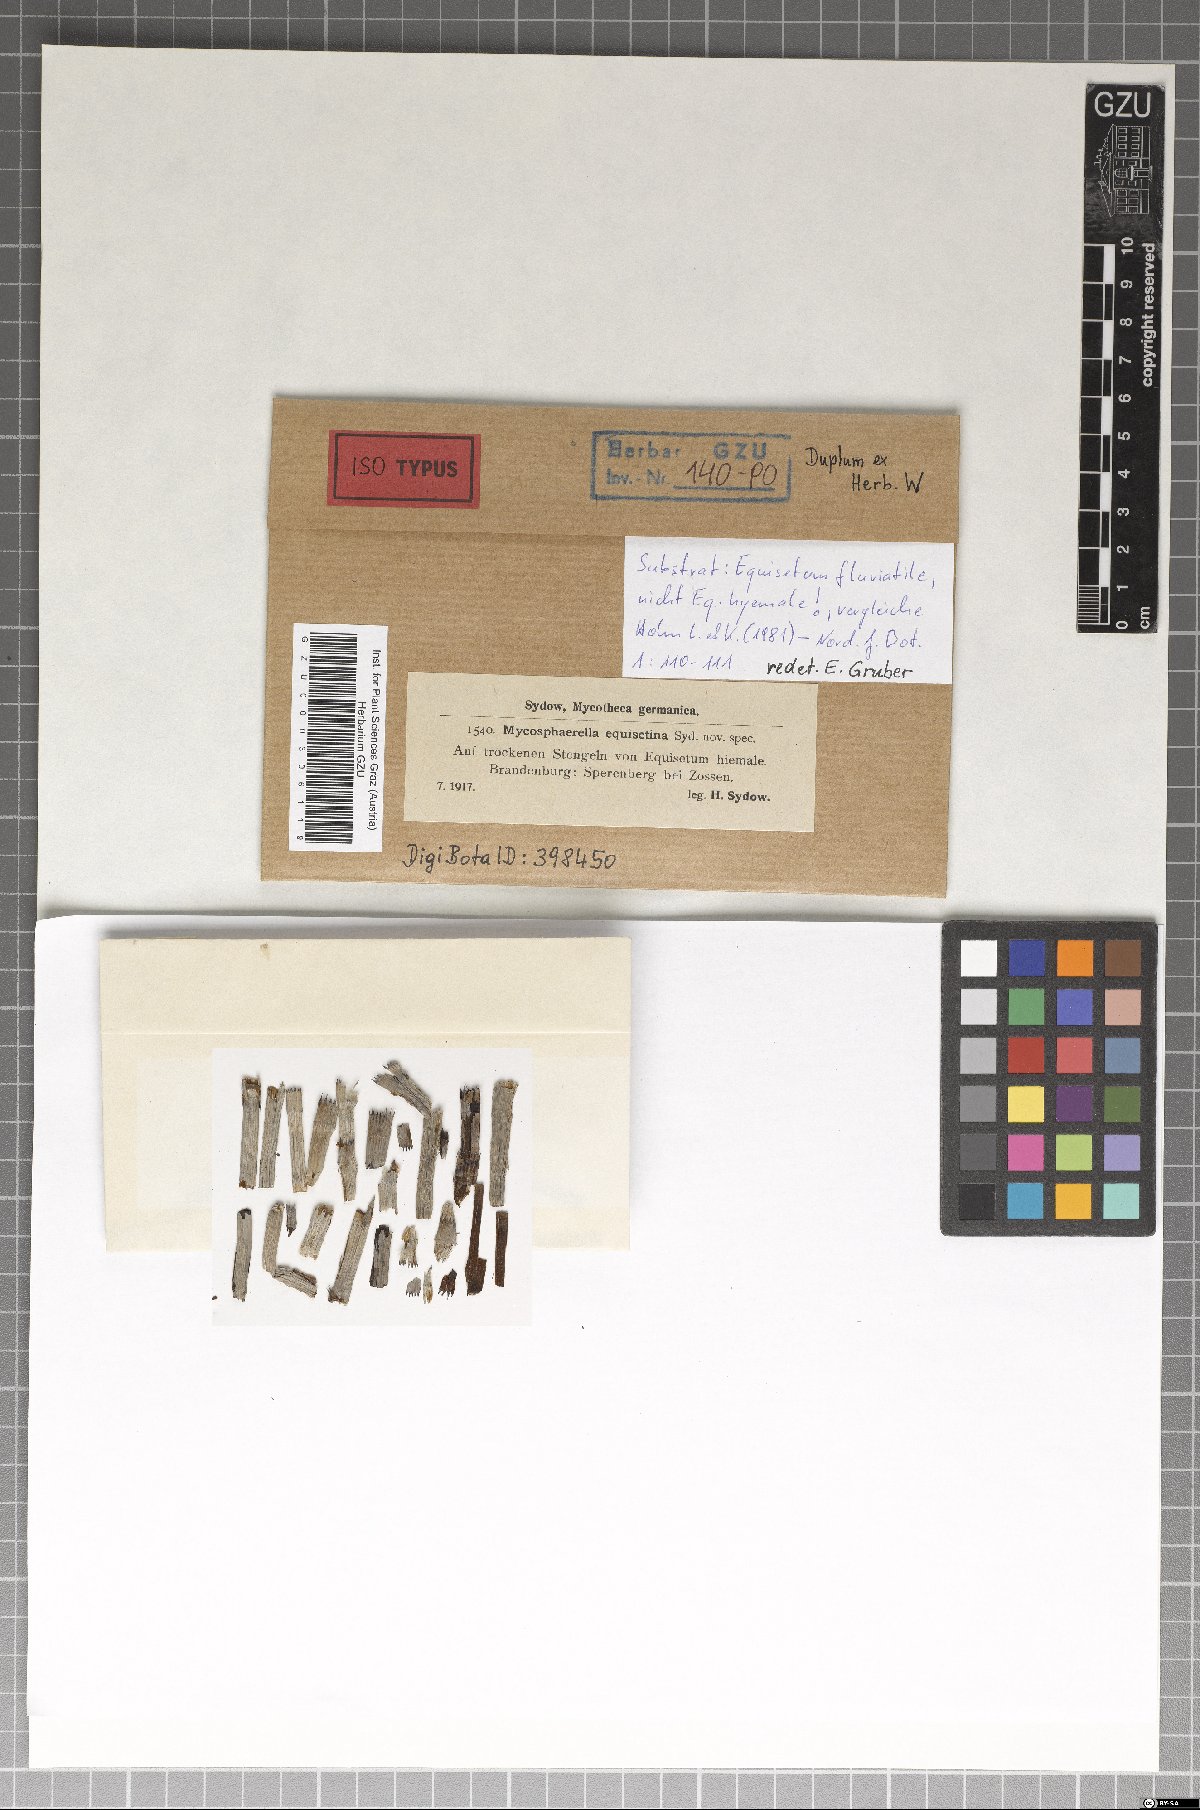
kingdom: Fungi
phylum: Ascomycota
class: Dothideomycetes
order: Mycosphaerellales
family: Mycosphaerellaceae
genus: Mycosphaerella
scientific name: Mycosphaerella equisetina
